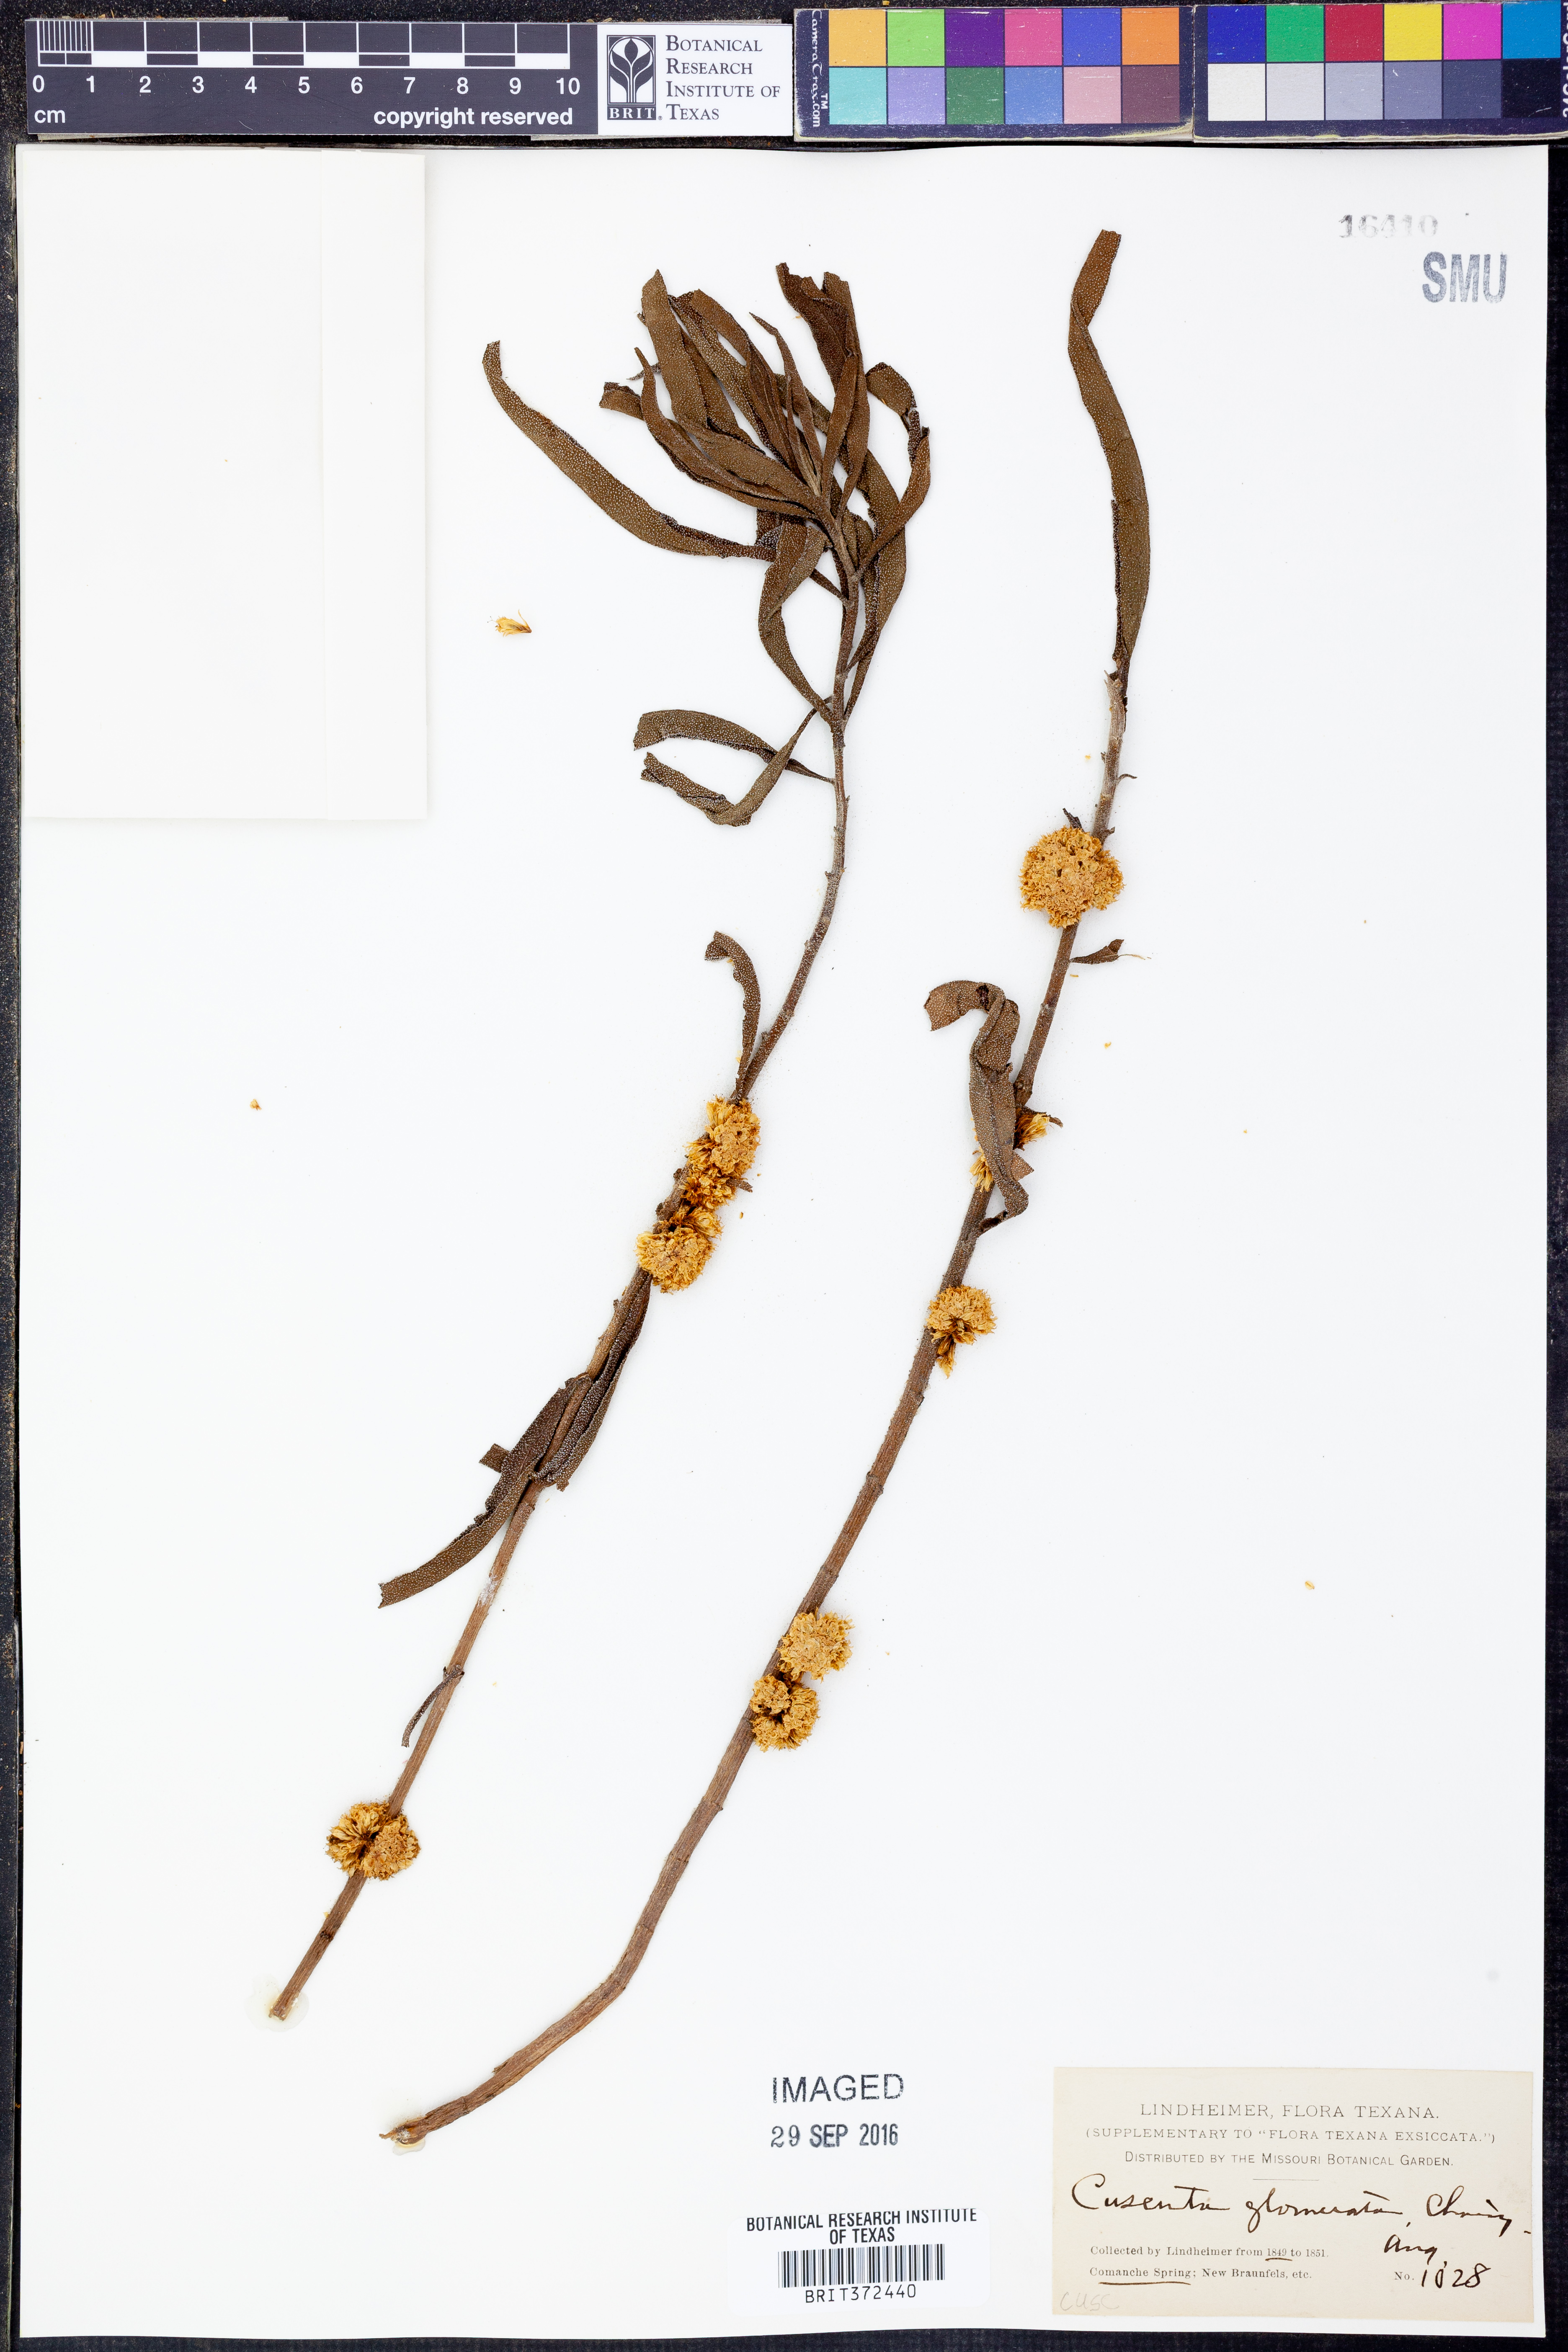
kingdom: Plantae
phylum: Tracheophyta
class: Magnoliopsida
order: Solanales
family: Convolvulaceae
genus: Cuscuta
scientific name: Cuscuta glomerata
